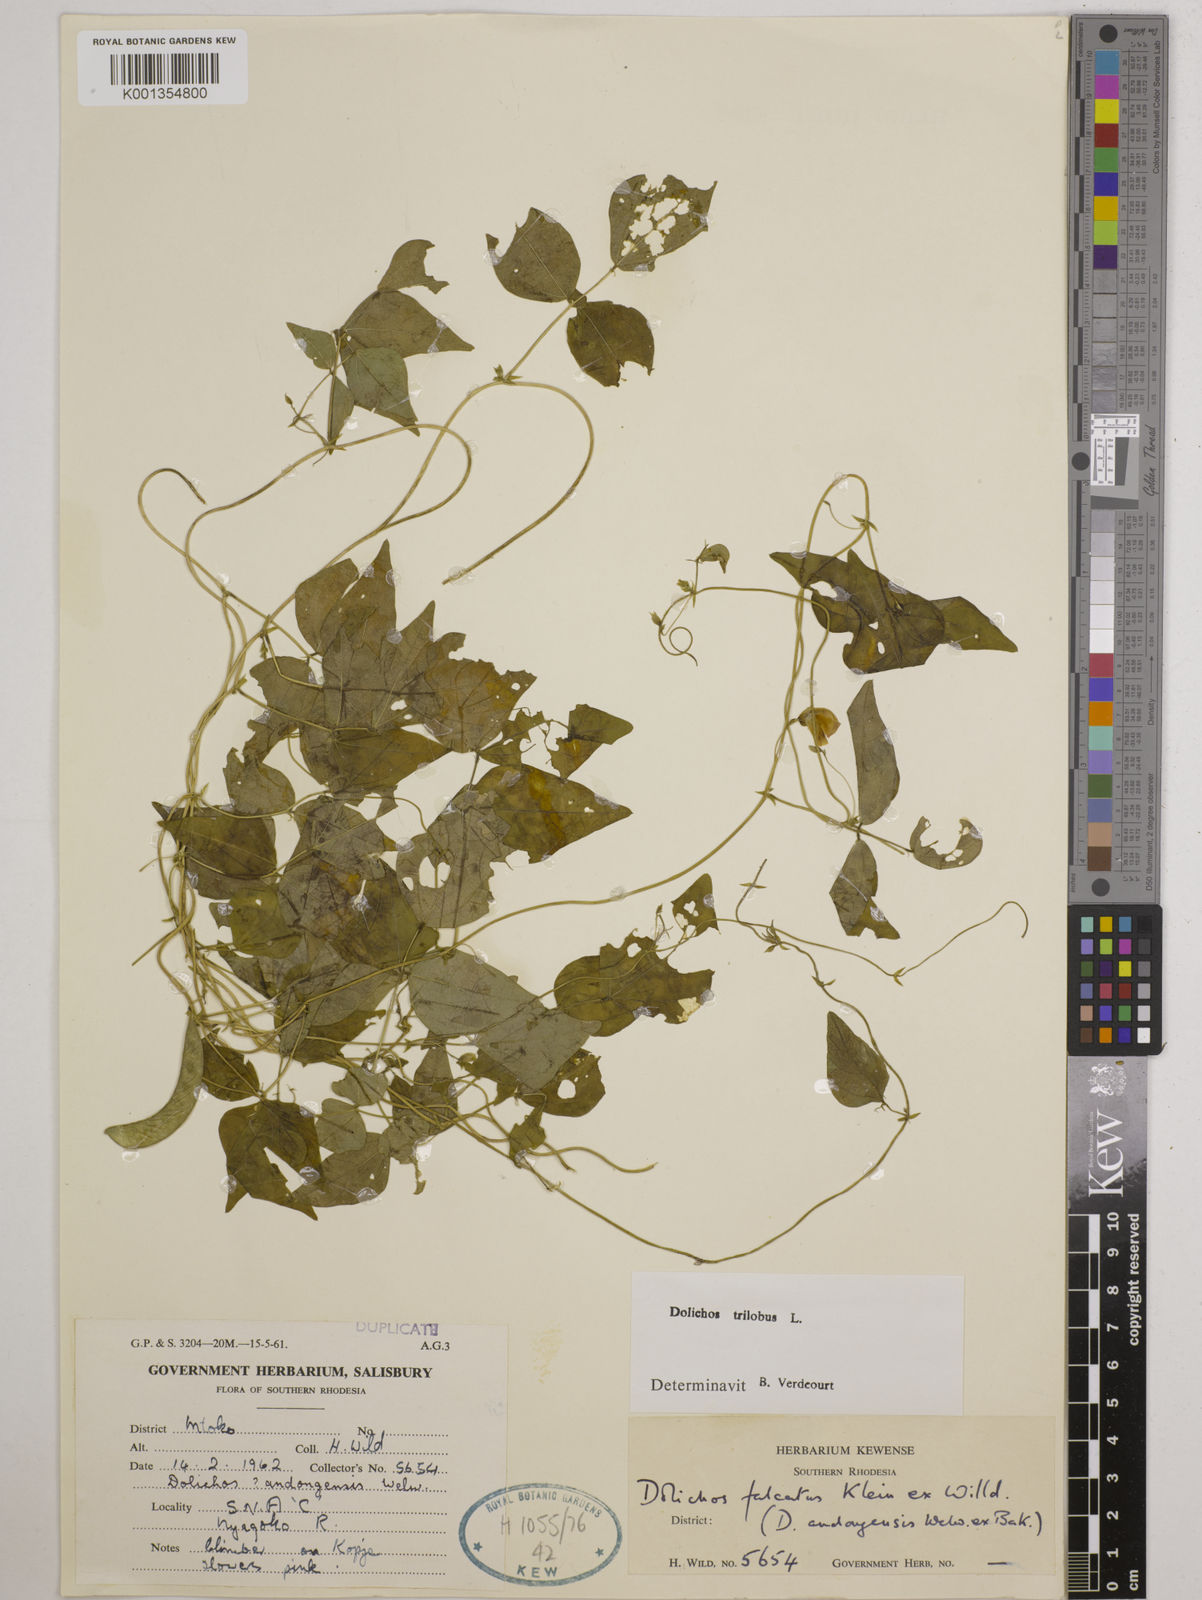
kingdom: Plantae
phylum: Tracheophyta
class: Magnoliopsida
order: Fabales
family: Fabaceae
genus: Dolichos
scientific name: Dolichos
